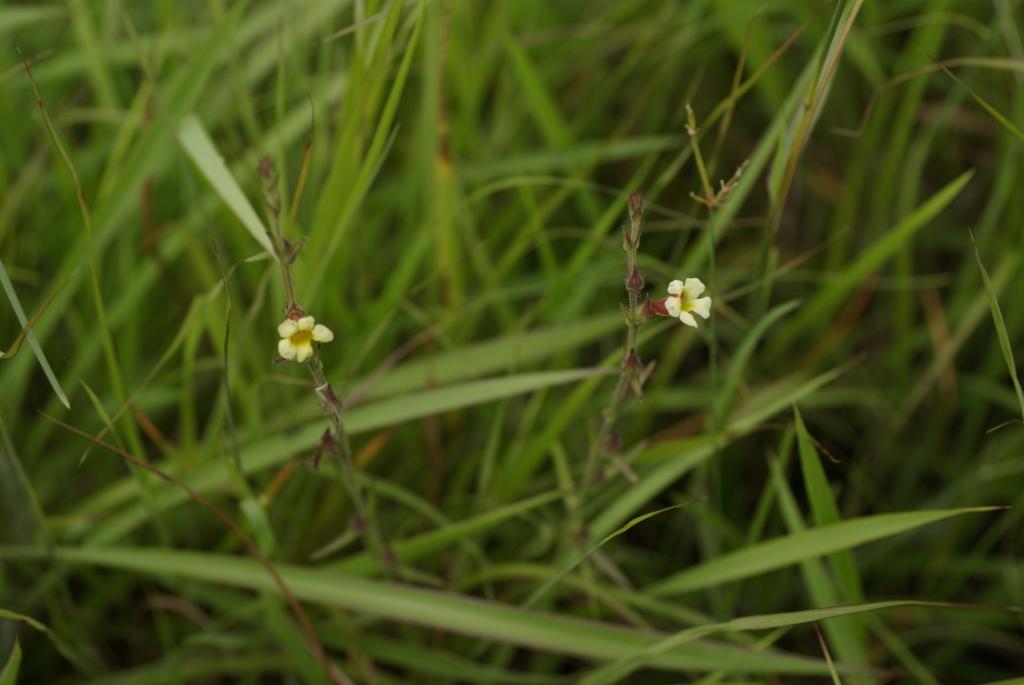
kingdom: Plantae
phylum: Tracheophyta
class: Magnoliopsida
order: Lamiales
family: Orobanchaceae
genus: Centranthera
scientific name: Centranthera cochinchinensis
